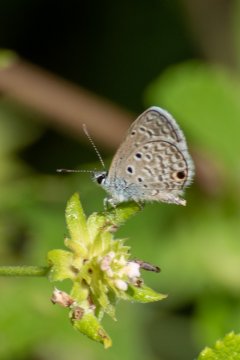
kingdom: Animalia
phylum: Arthropoda
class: Insecta
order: Lepidoptera
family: Lycaenidae
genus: Hemiargus
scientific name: Hemiargus
